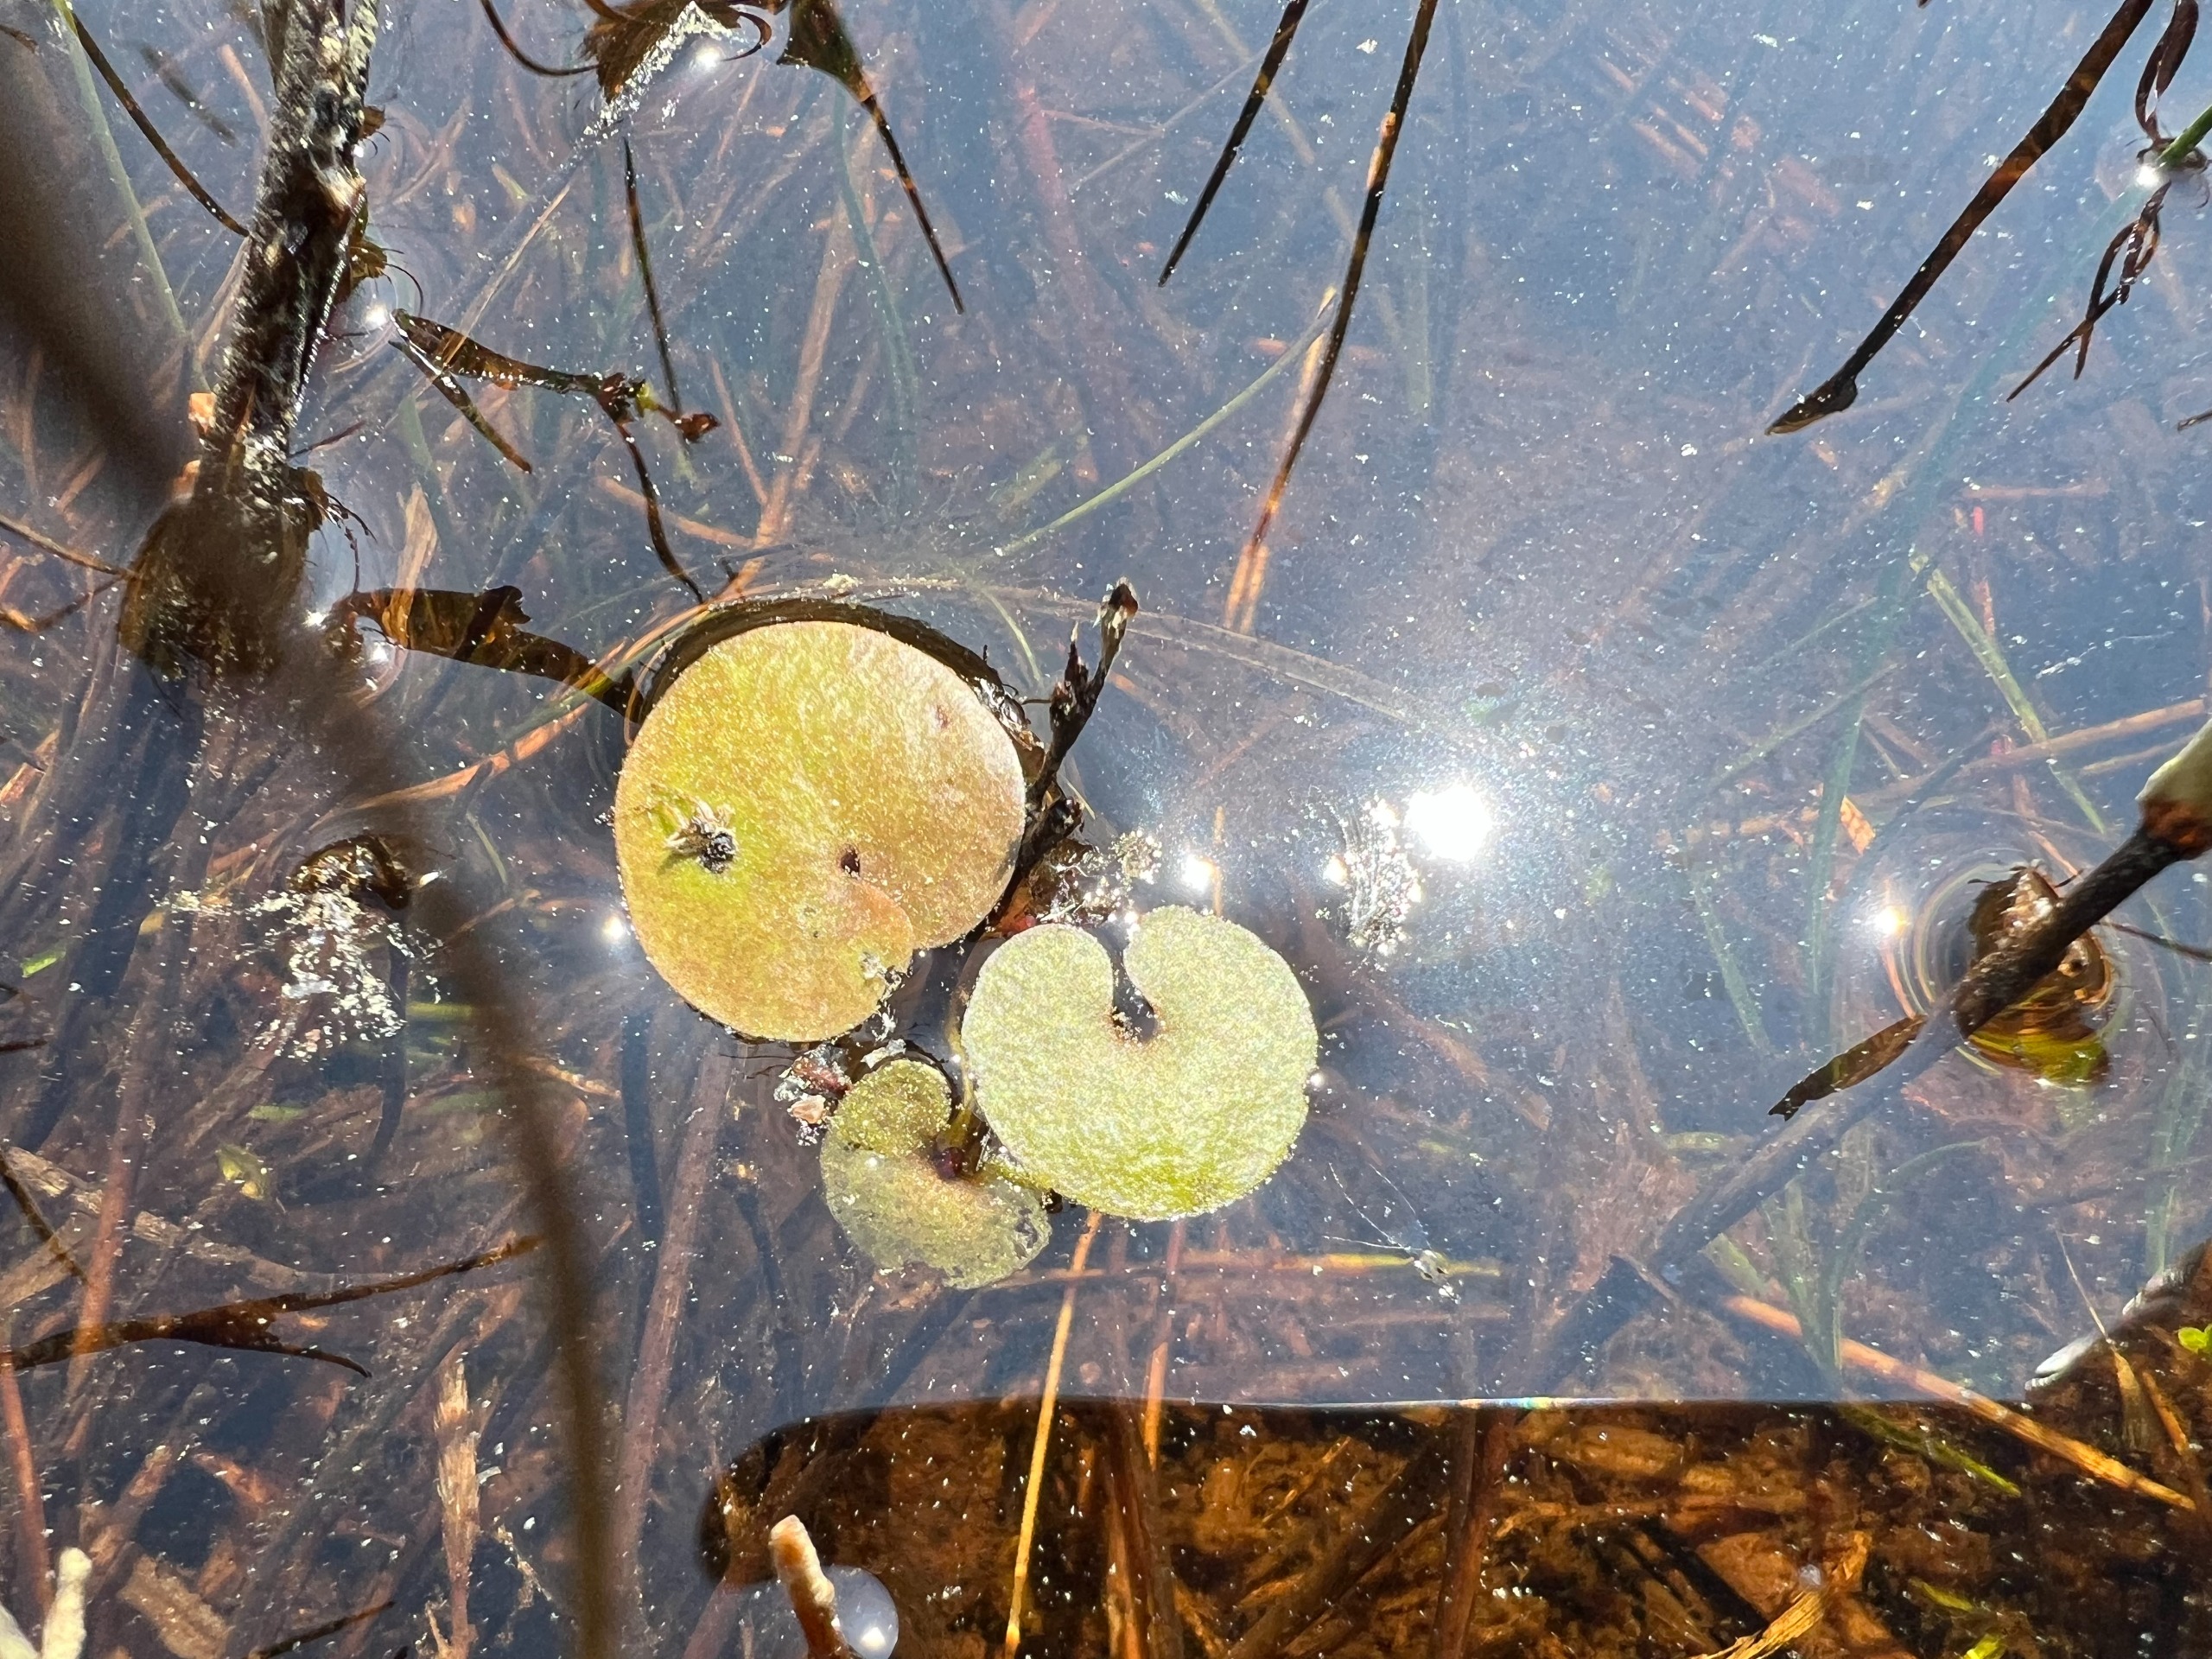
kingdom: Plantae
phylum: Tracheophyta
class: Liliopsida
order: Alismatales
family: Hydrocharitaceae
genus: Hydrocharis
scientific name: Hydrocharis morsus-ranae
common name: Frøbid
